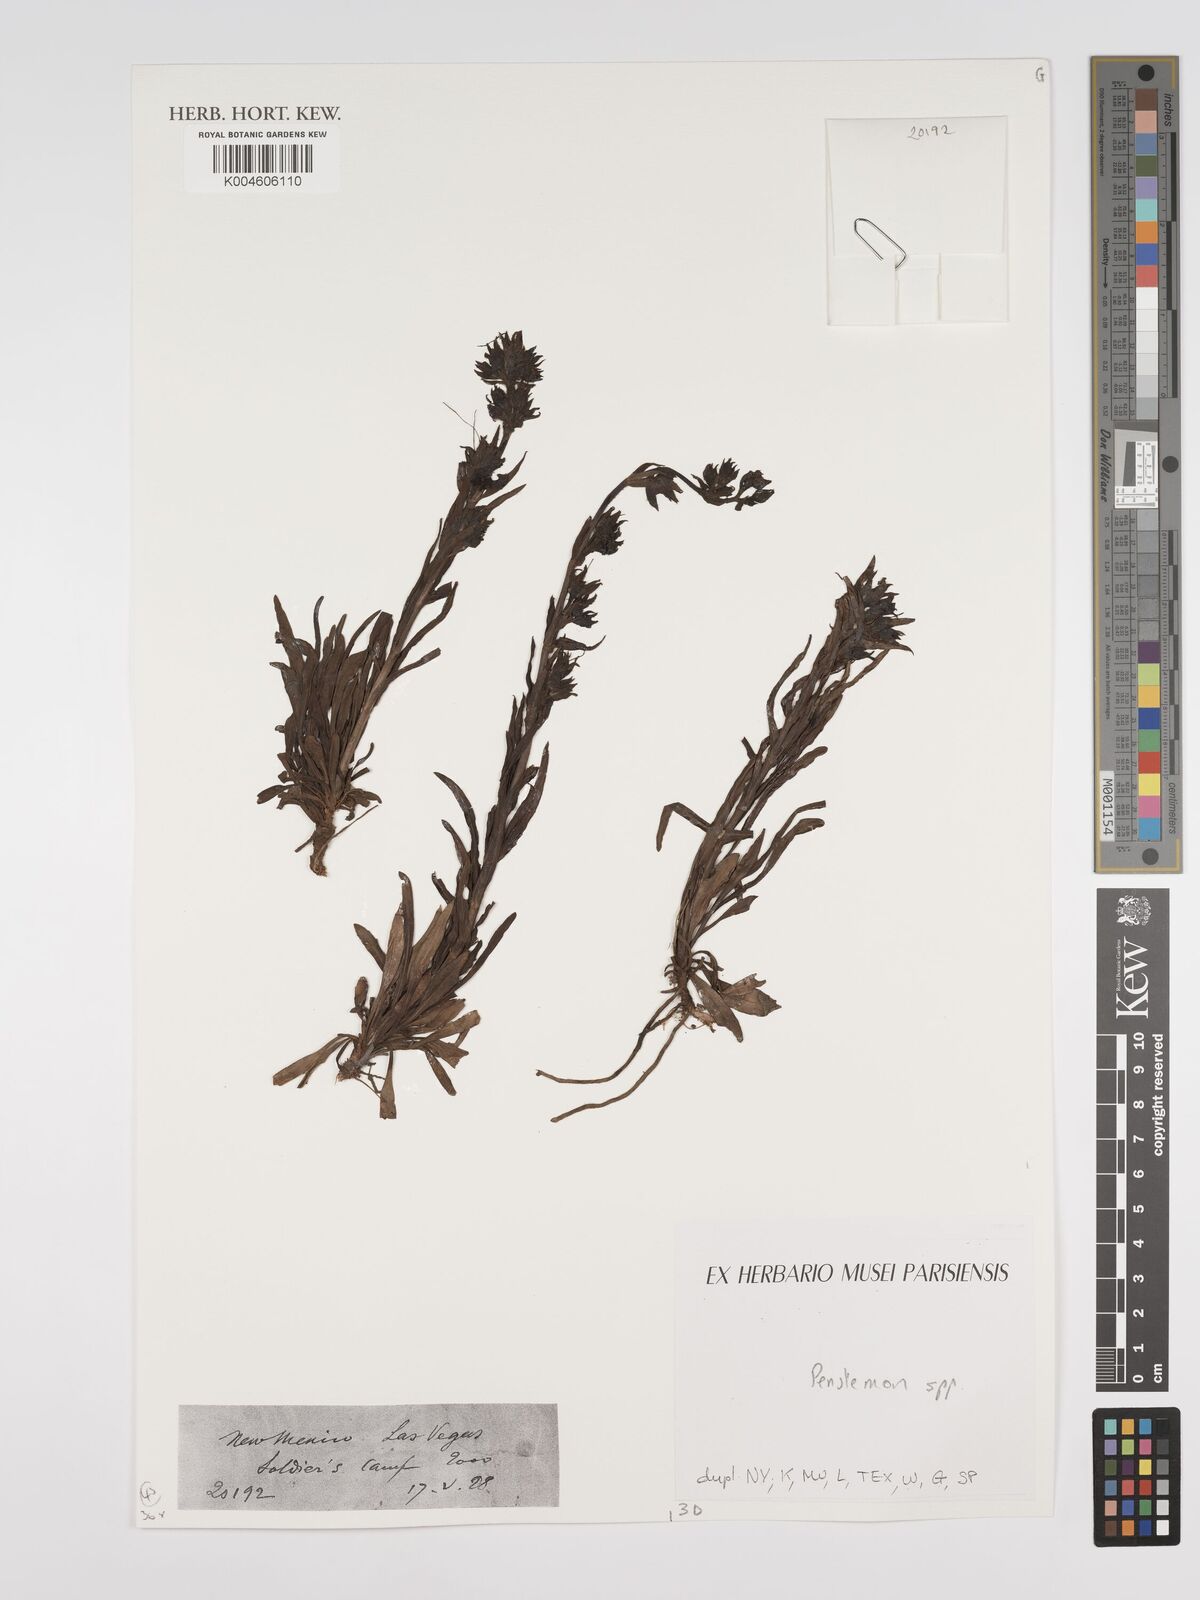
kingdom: Plantae
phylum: Tracheophyta
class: Magnoliopsida
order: Lamiales
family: Plantaginaceae
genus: Penstemon
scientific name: Penstemon
